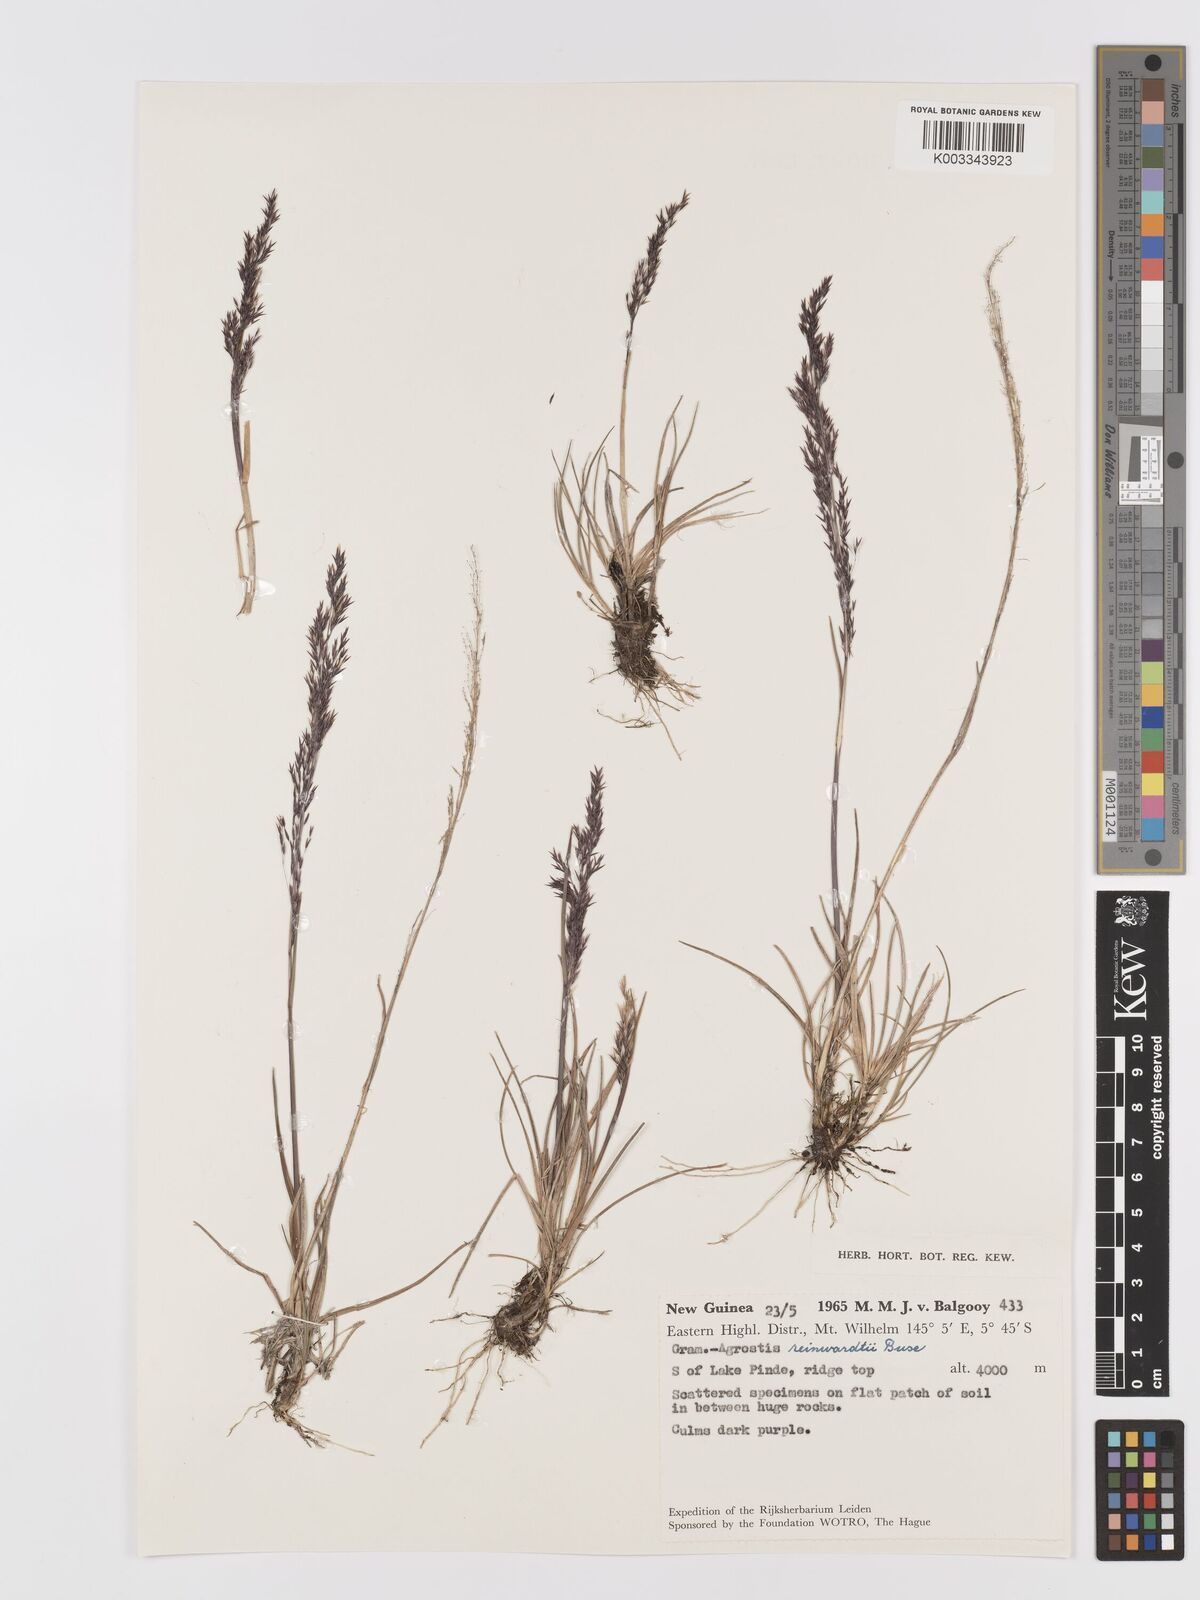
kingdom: Plantae
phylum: Tracheophyta
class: Liliopsida
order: Poales
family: Poaceae
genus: Agrostis
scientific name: Agrostis infirma
